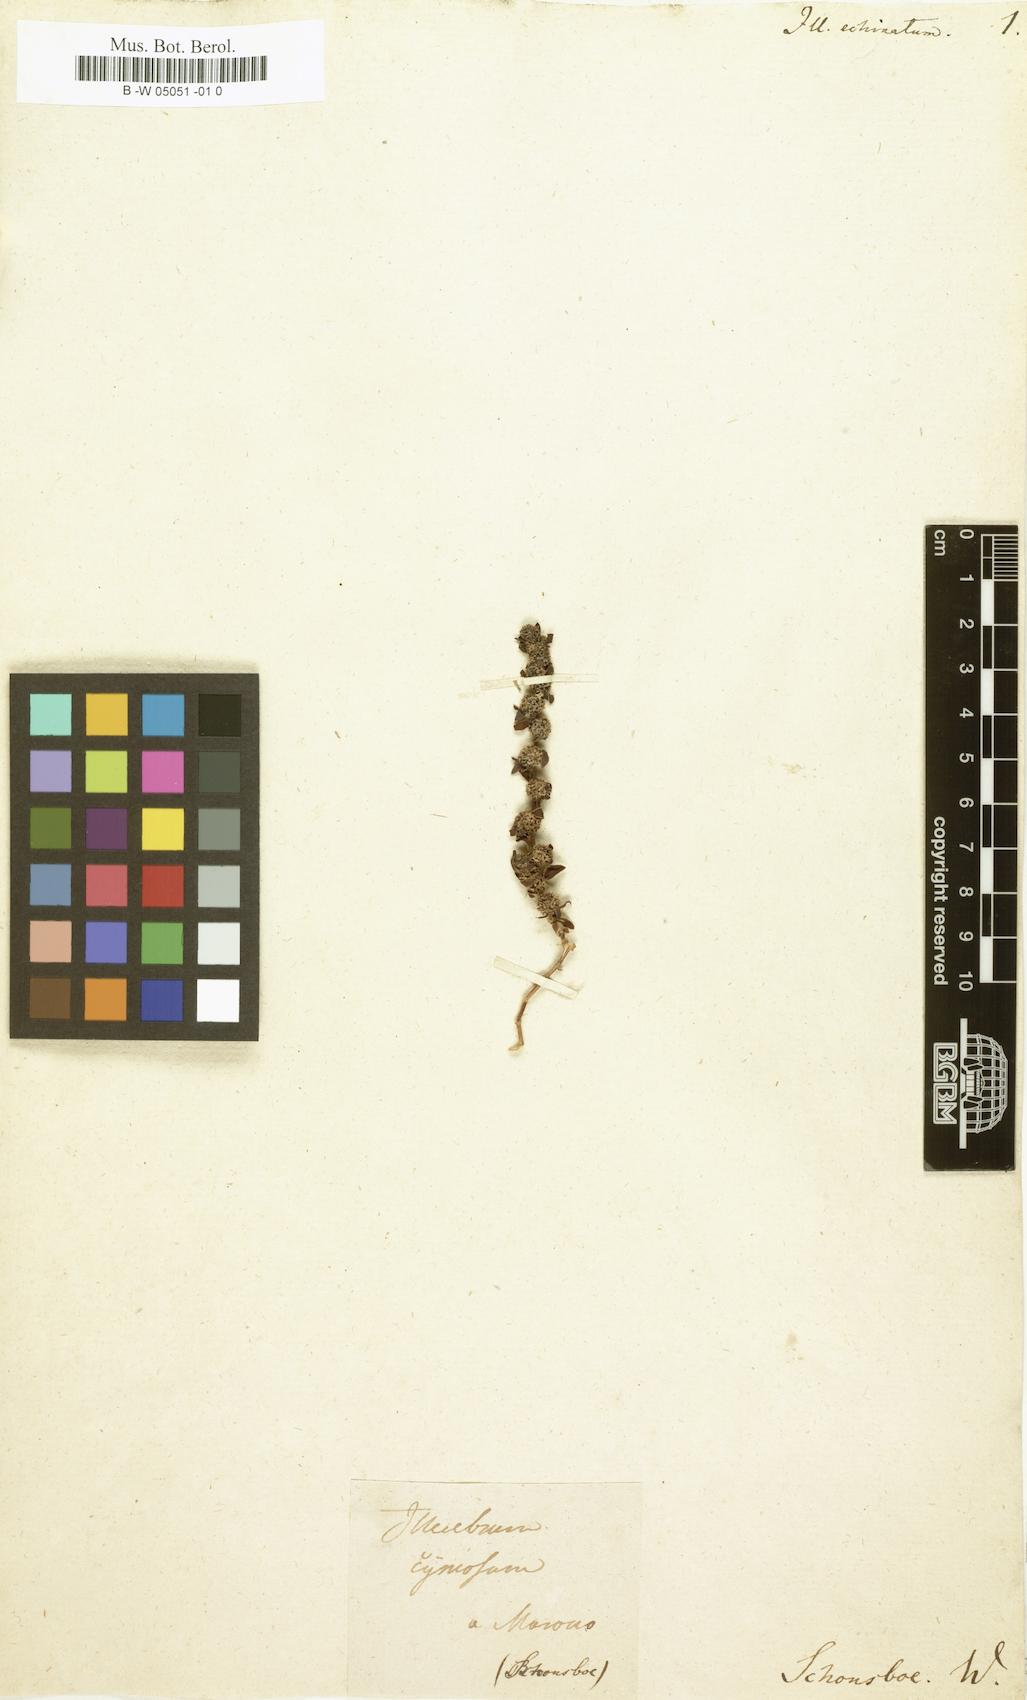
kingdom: Plantae
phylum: Tracheophyta
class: Magnoliopsida
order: Caryophyllales
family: Caryophyllaceae
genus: Paronychia
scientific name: Paronychia echinulata
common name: Eurasian nailwort
